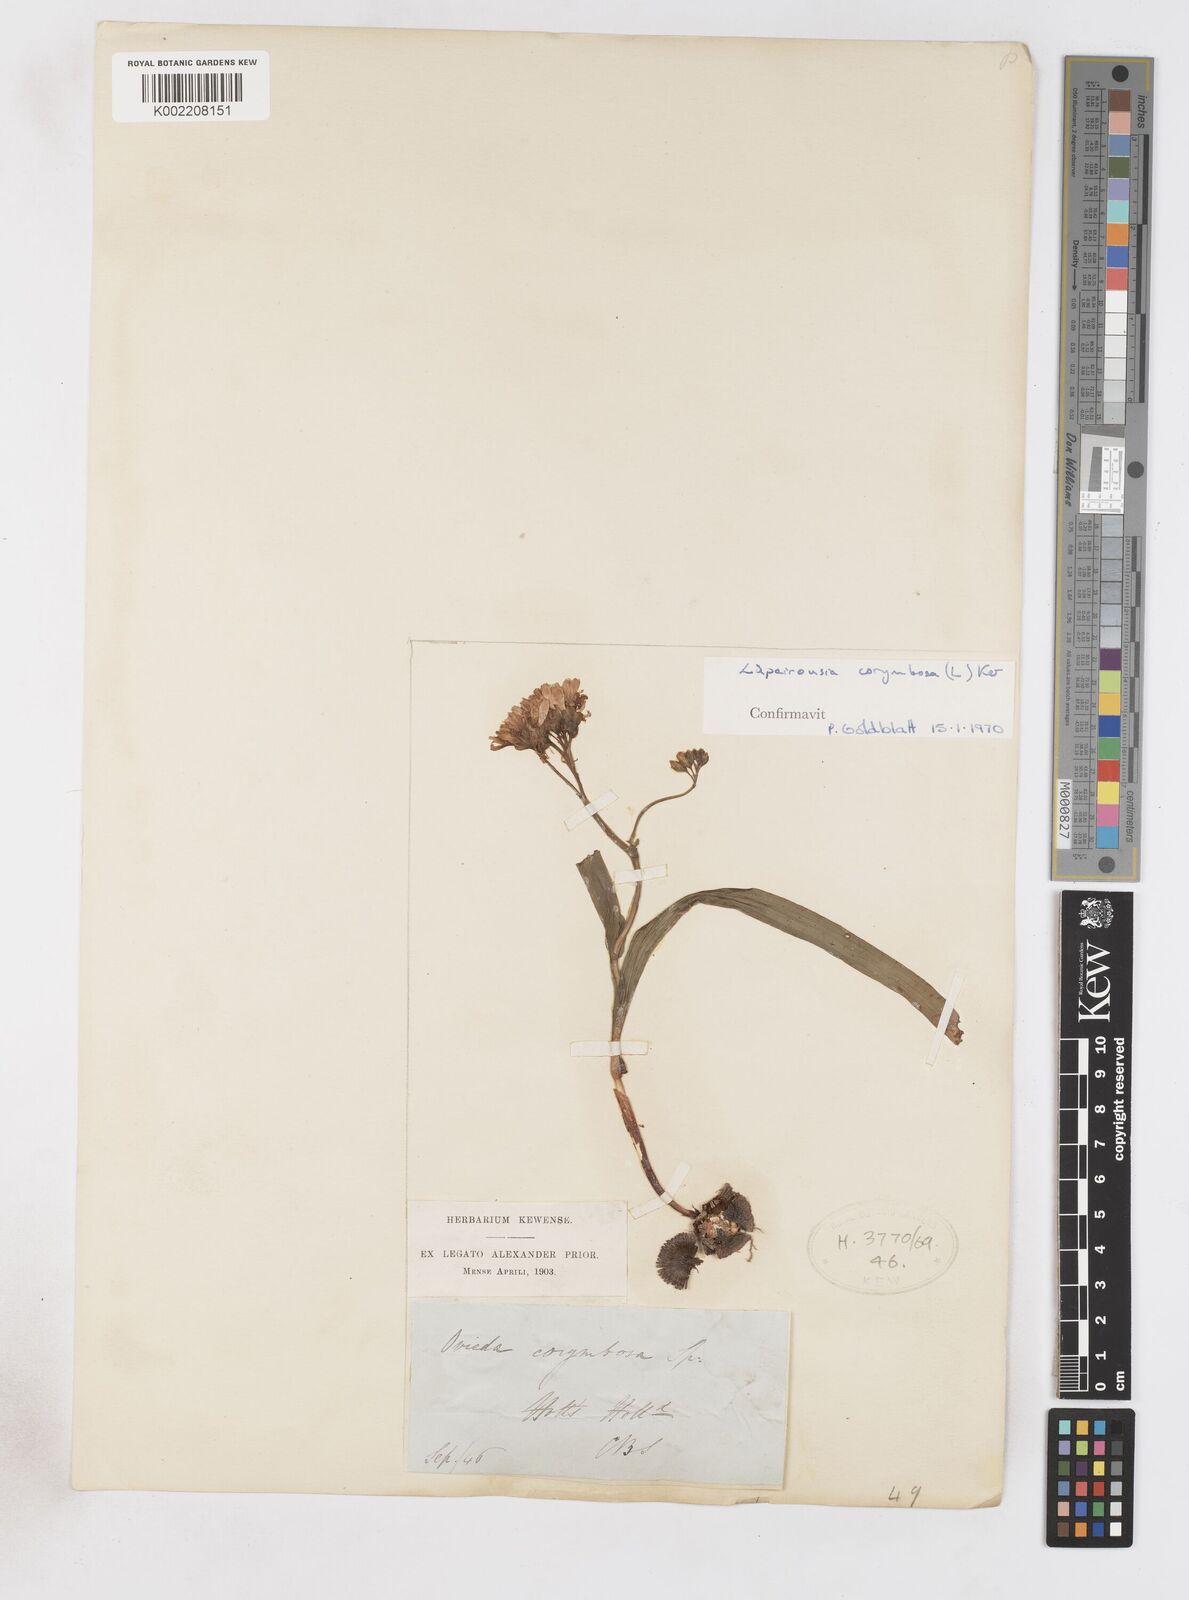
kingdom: Plantae
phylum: Tracheophyta
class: Liliopsida
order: Asparagales
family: Iridaceae
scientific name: Iridaceae
